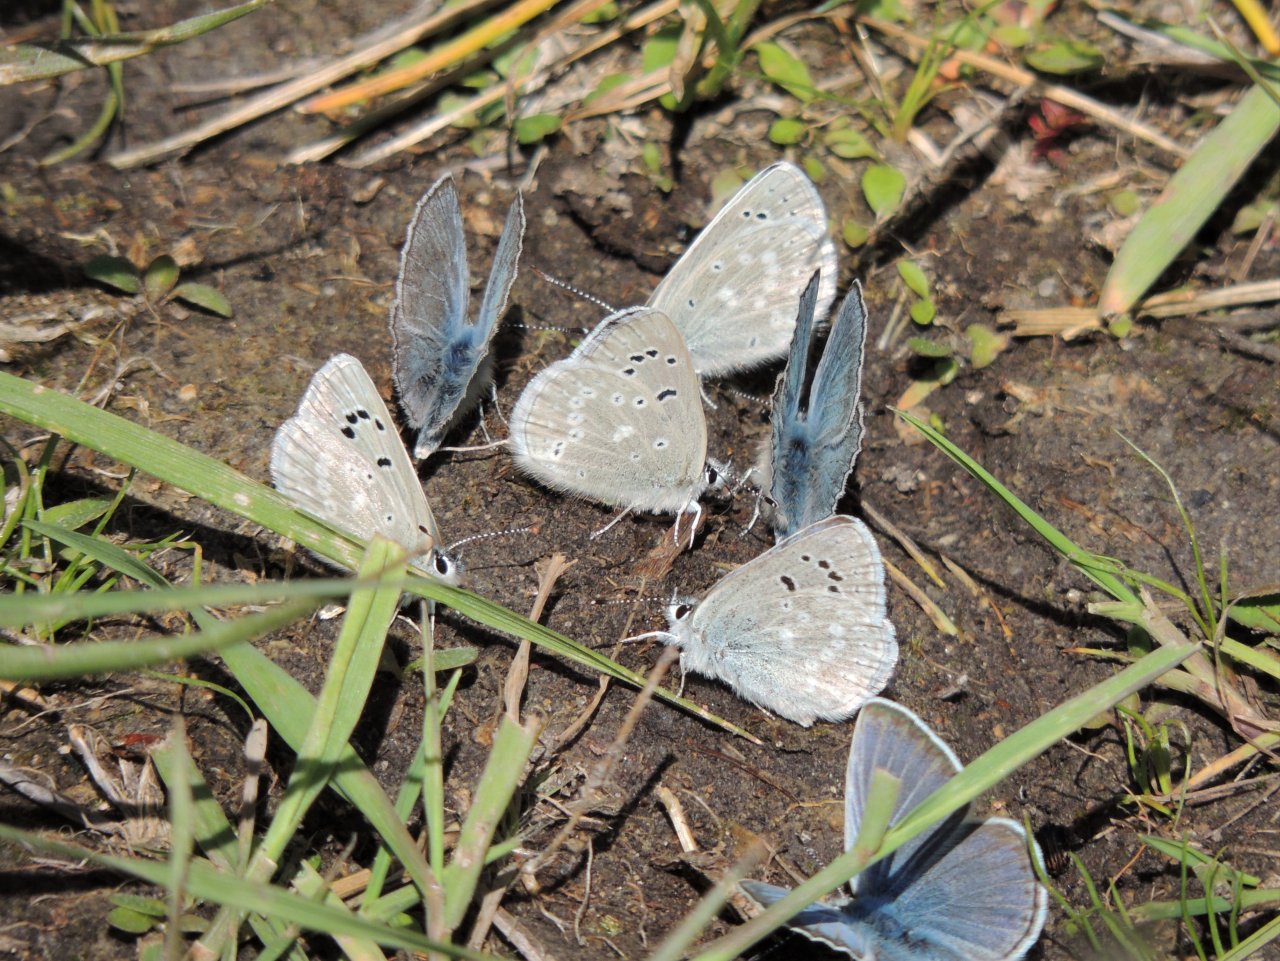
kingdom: Animalia
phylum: Arthropoda
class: Insecta
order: Lepidoptera
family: Lycaenidae
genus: Icaricia
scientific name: Icaricia icarioides
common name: Boisduval's Blue
